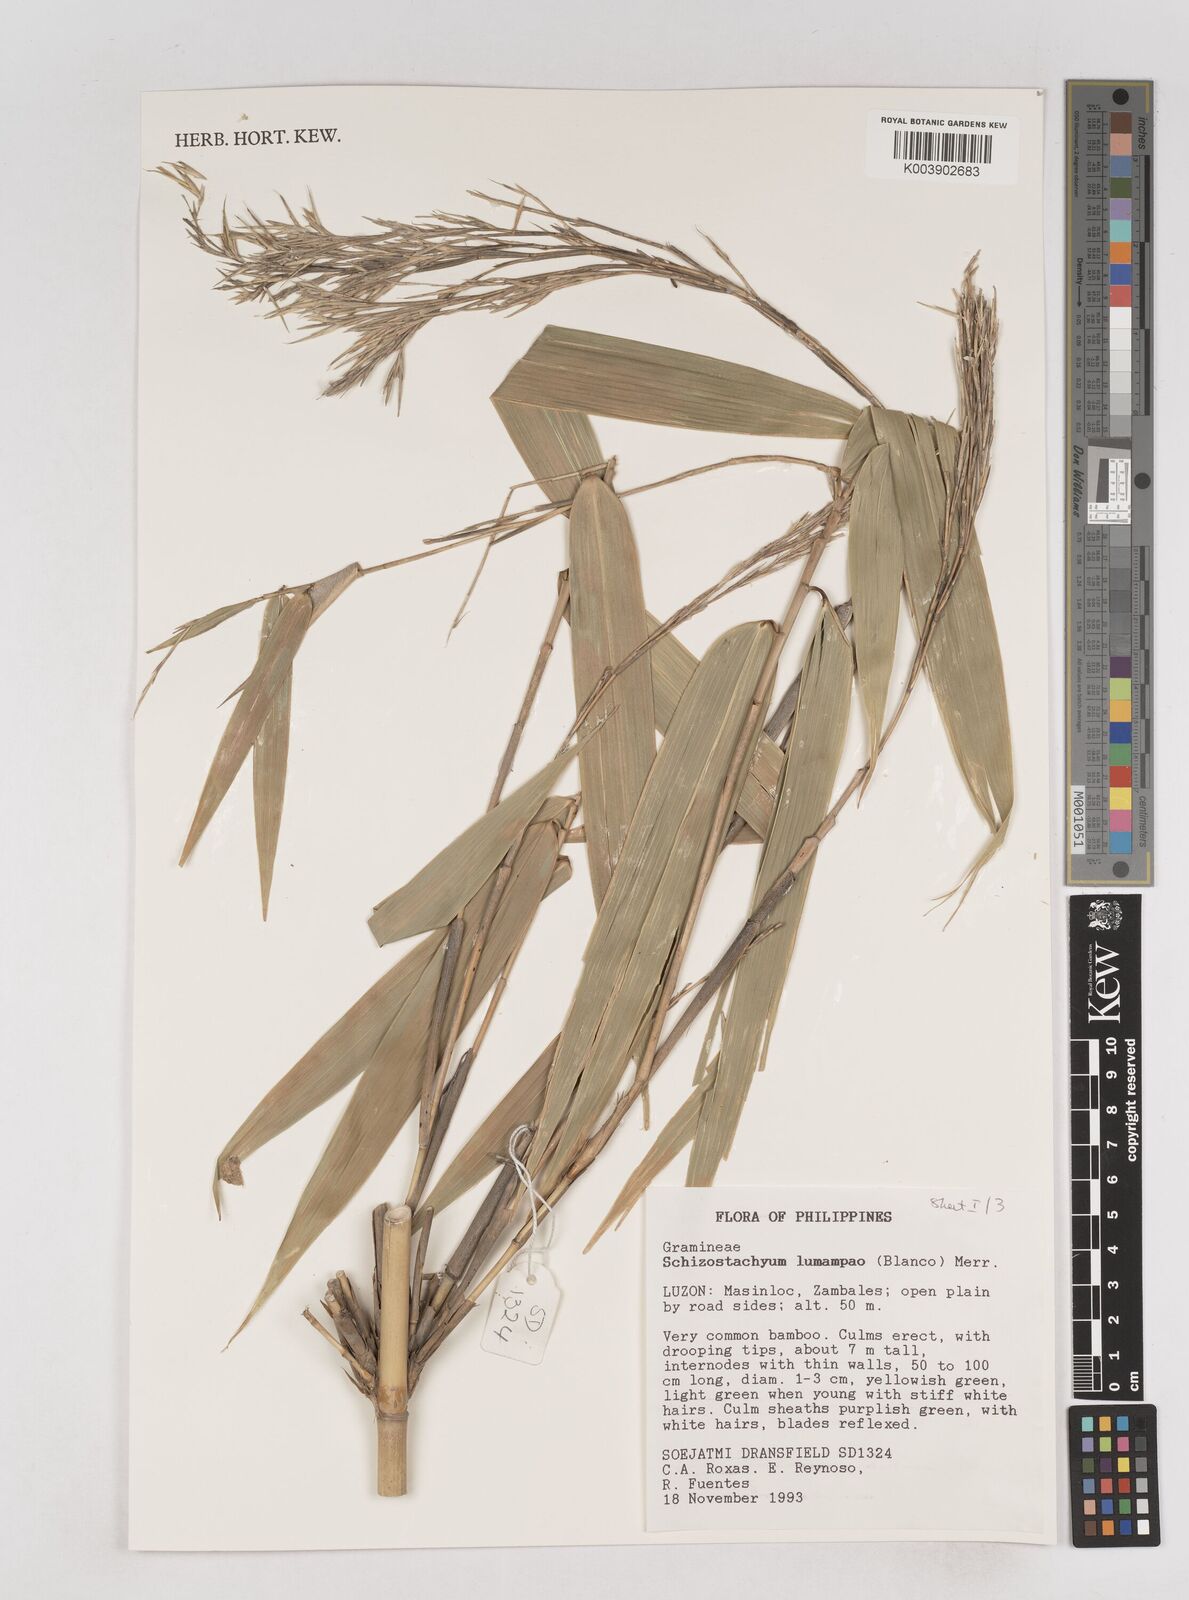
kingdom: Plantae
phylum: Tracheophyta
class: Liliopsida
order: Poales
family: Poaceae
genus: Schizostachyum
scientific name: Schizostachyum lumampao
